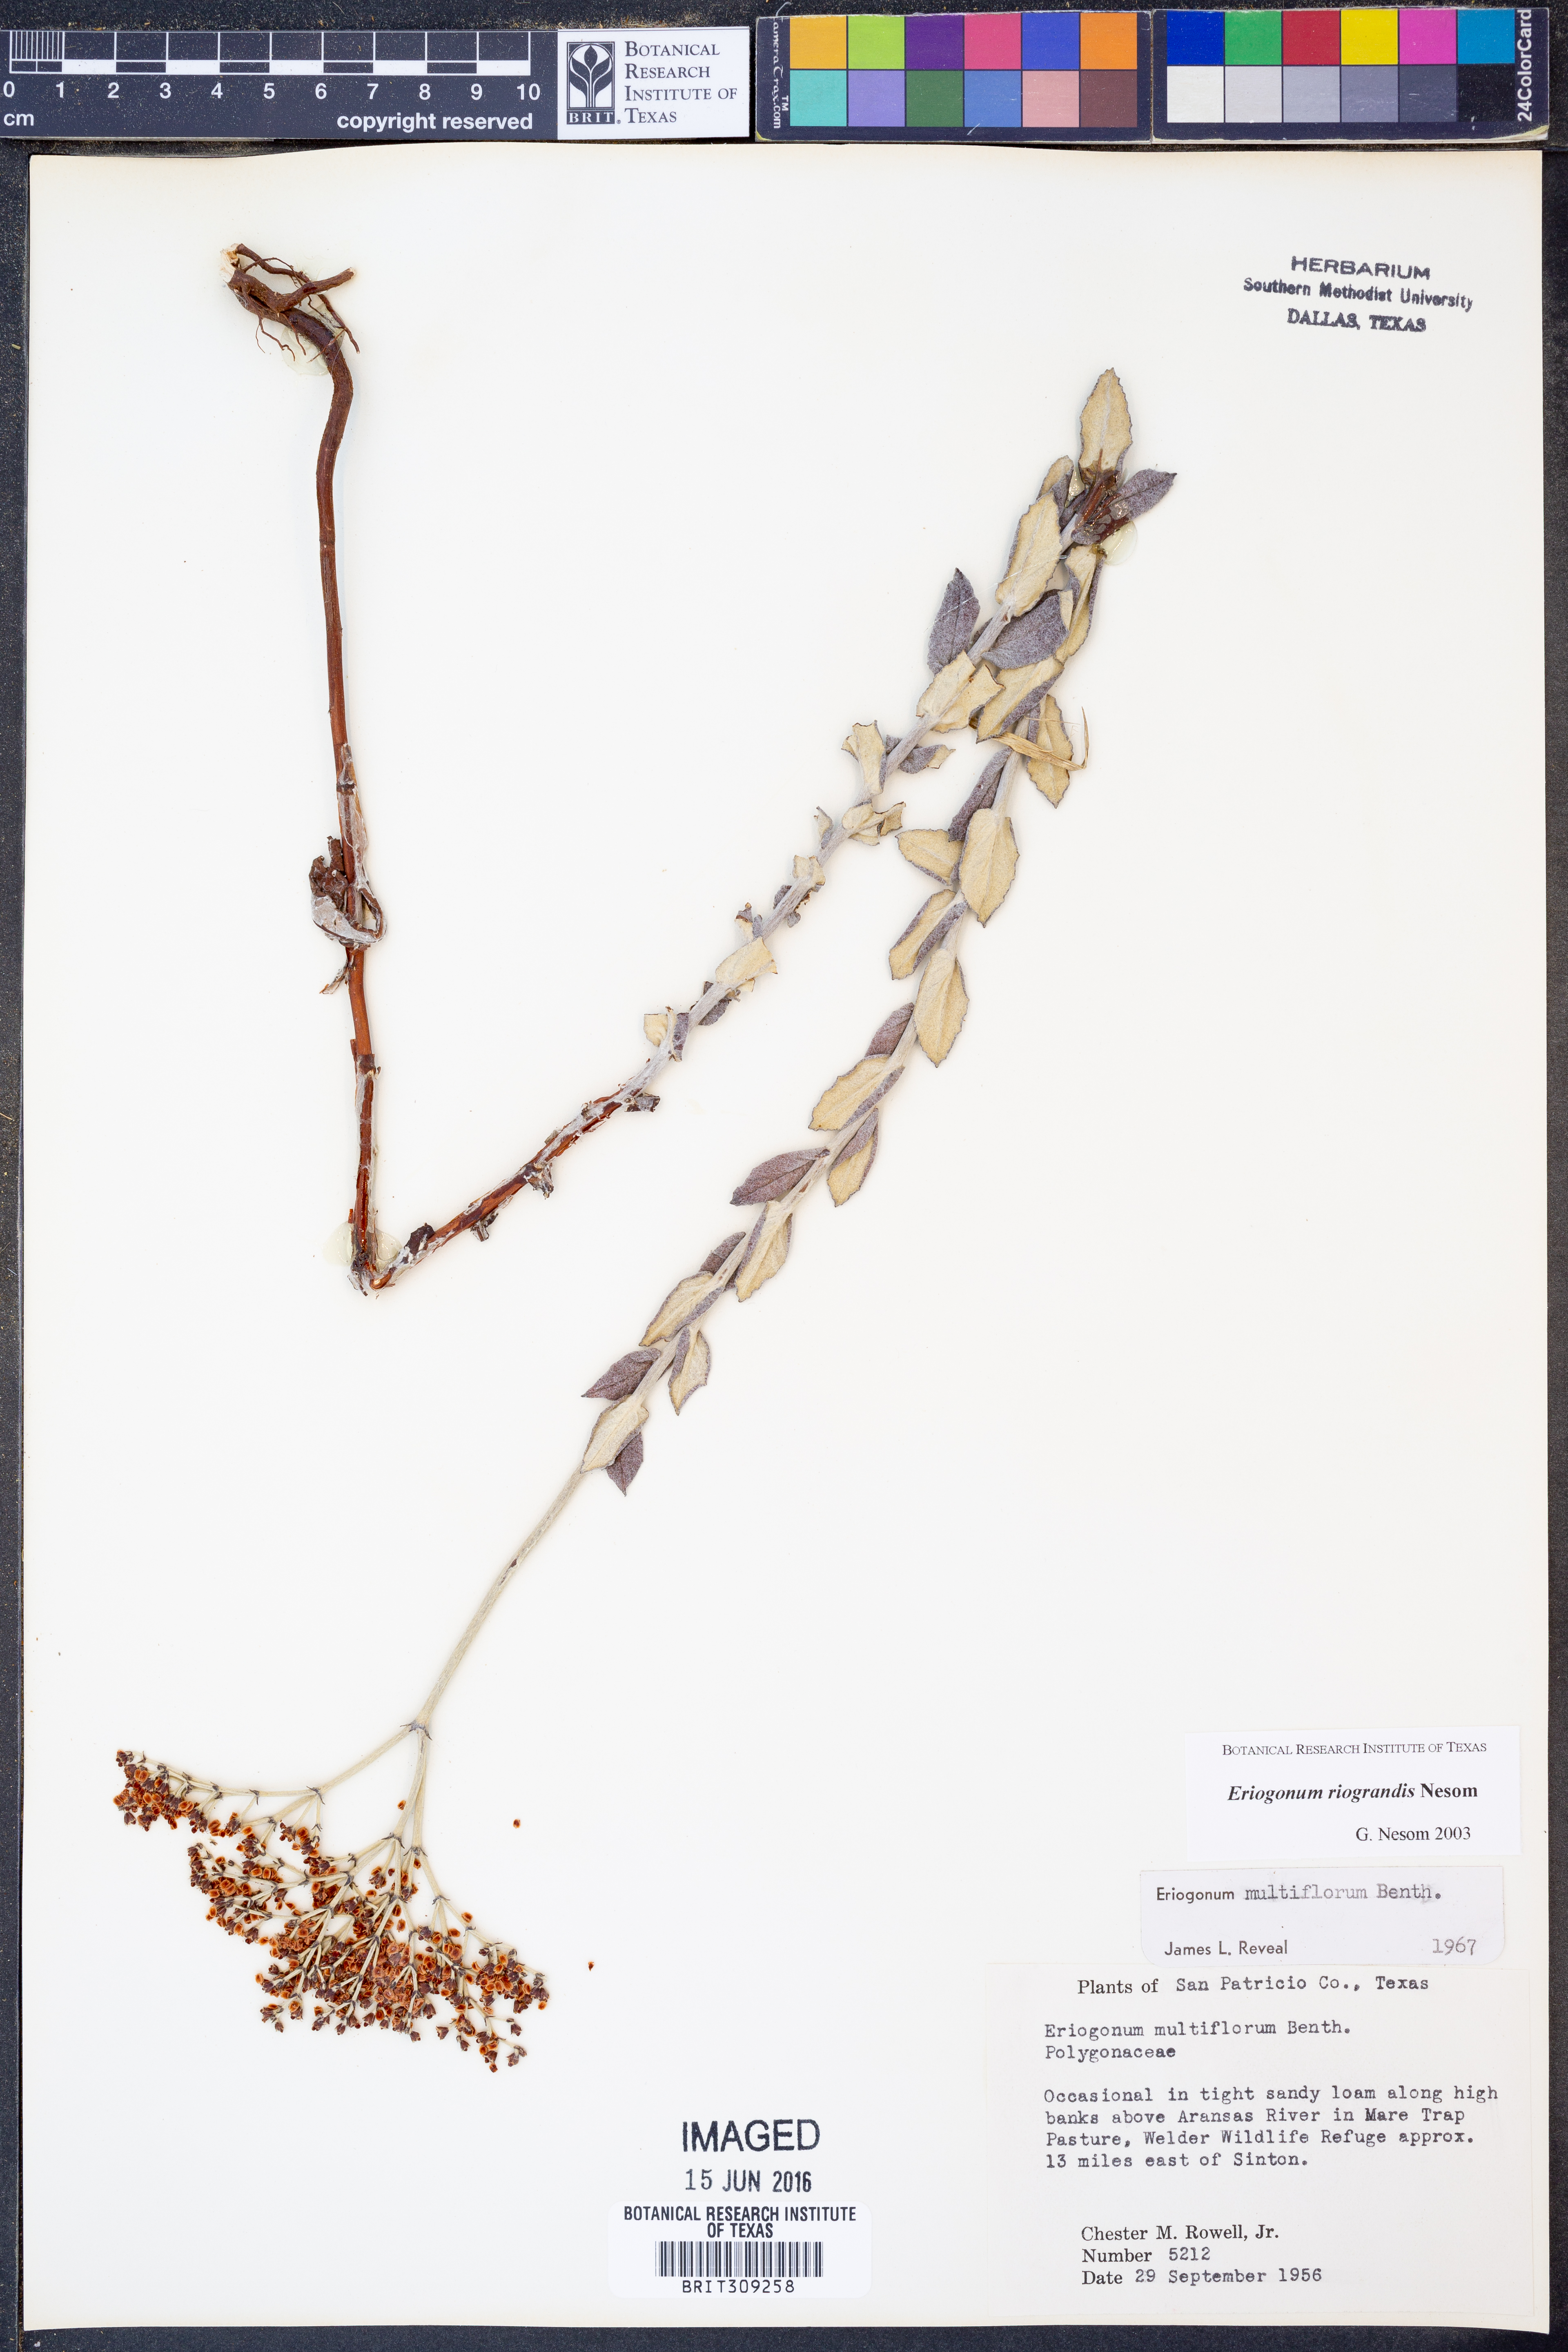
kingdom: Plantae
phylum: Tracheophyta
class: Magnoliopsida
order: Caryophyllales
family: Polygonaceae
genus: Eriogonum
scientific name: Eriogonum multiflorum
